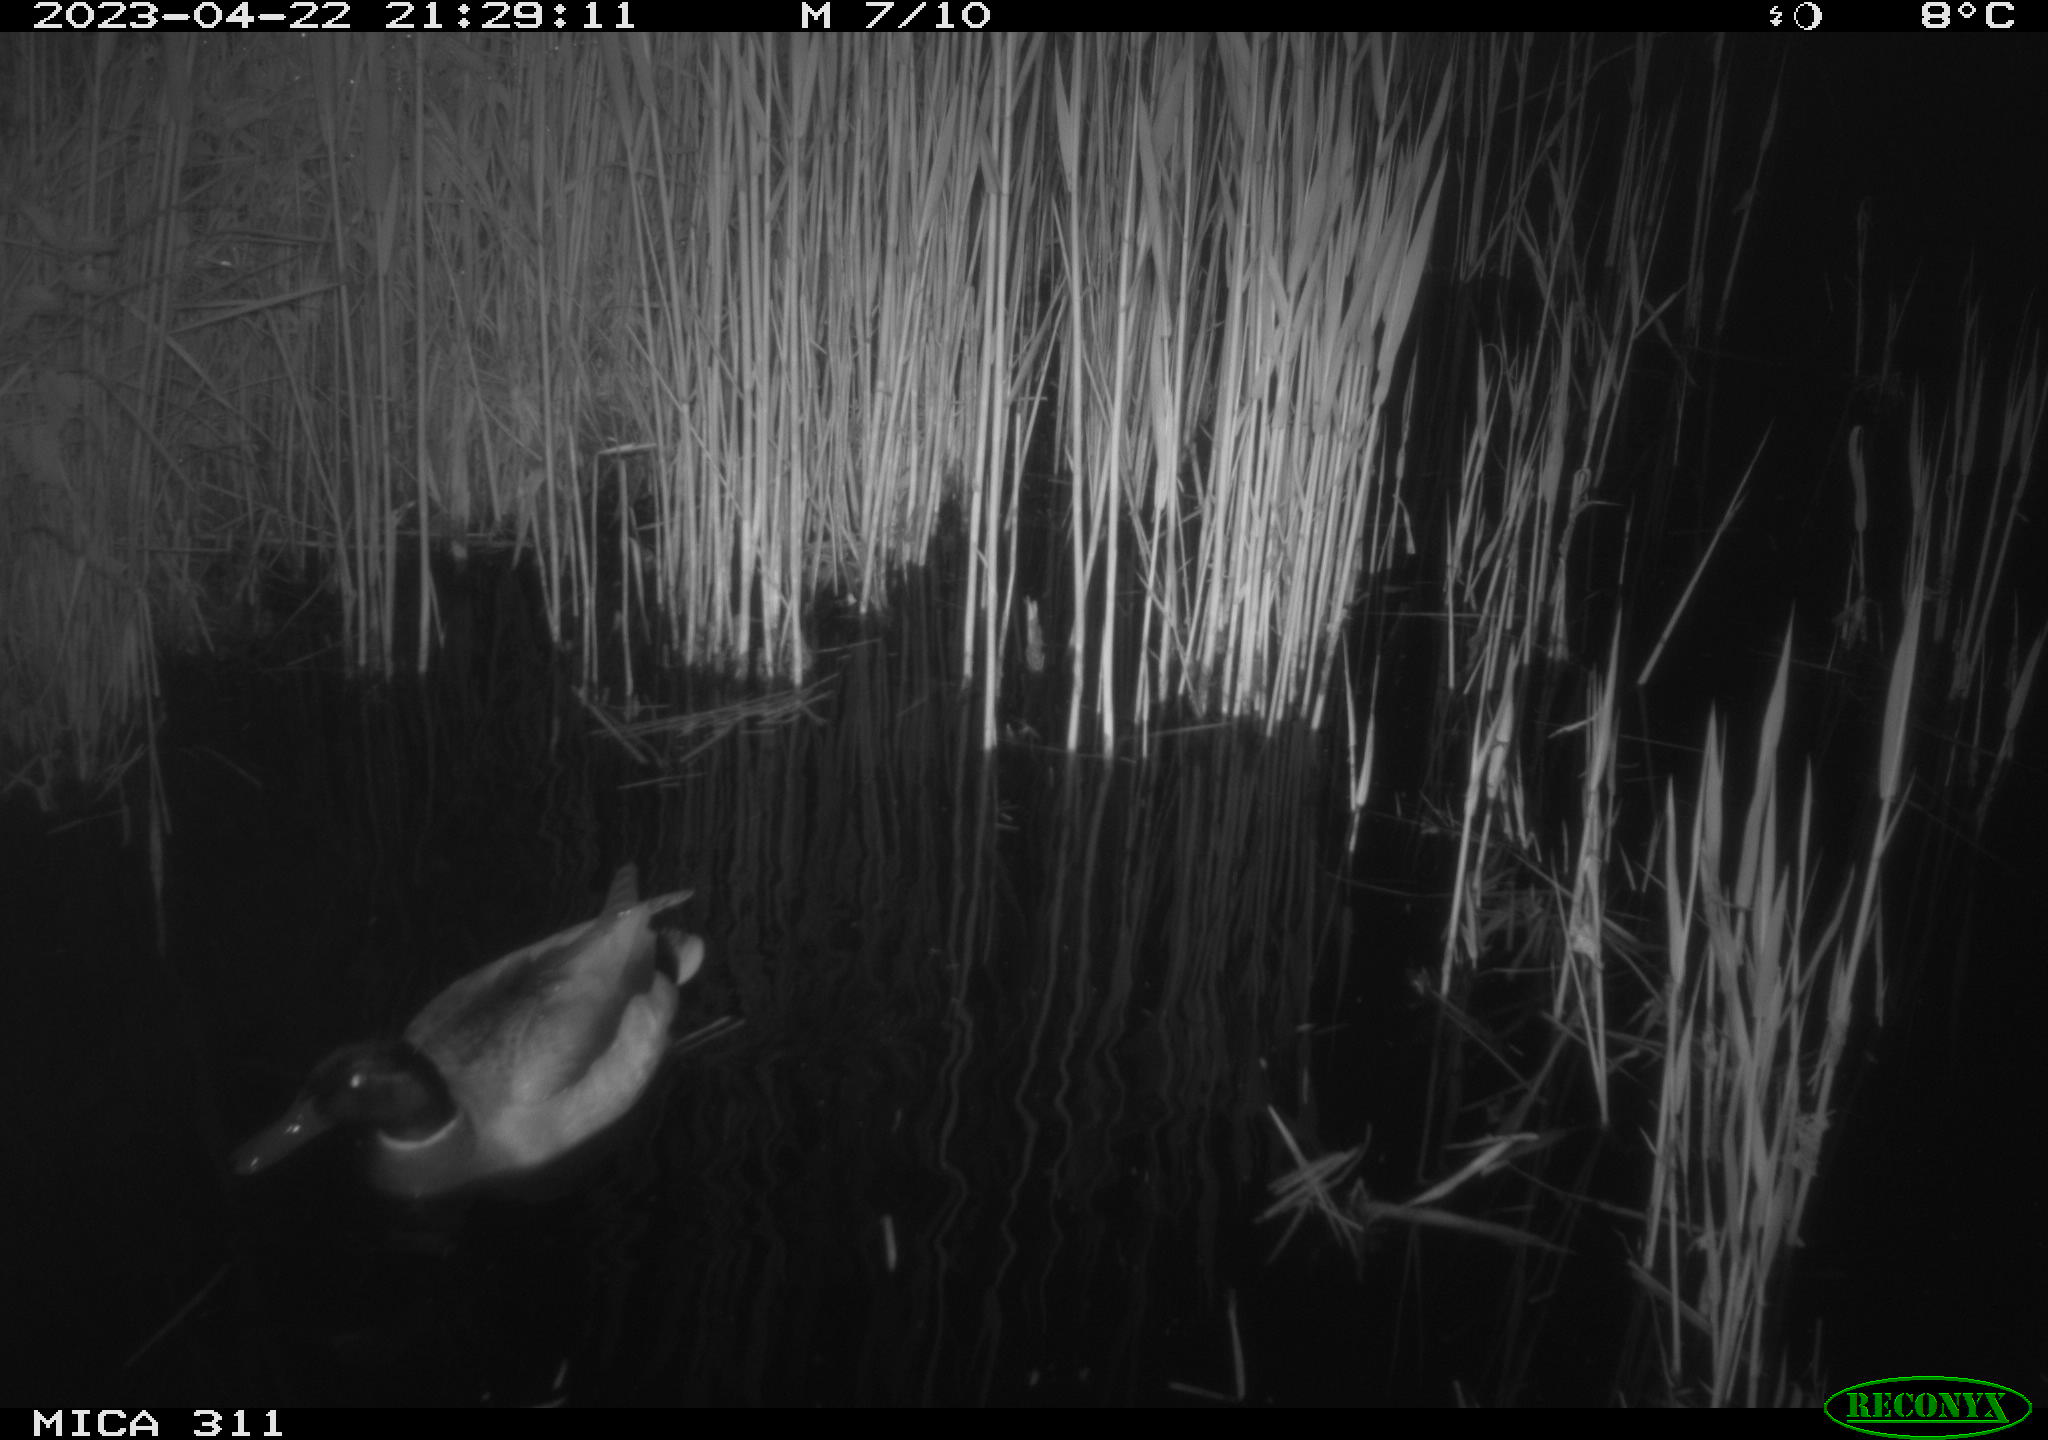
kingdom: Animalia
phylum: Chordata
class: Aves
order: Anseriformes
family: Anatidae
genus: Anas
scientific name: Anas
